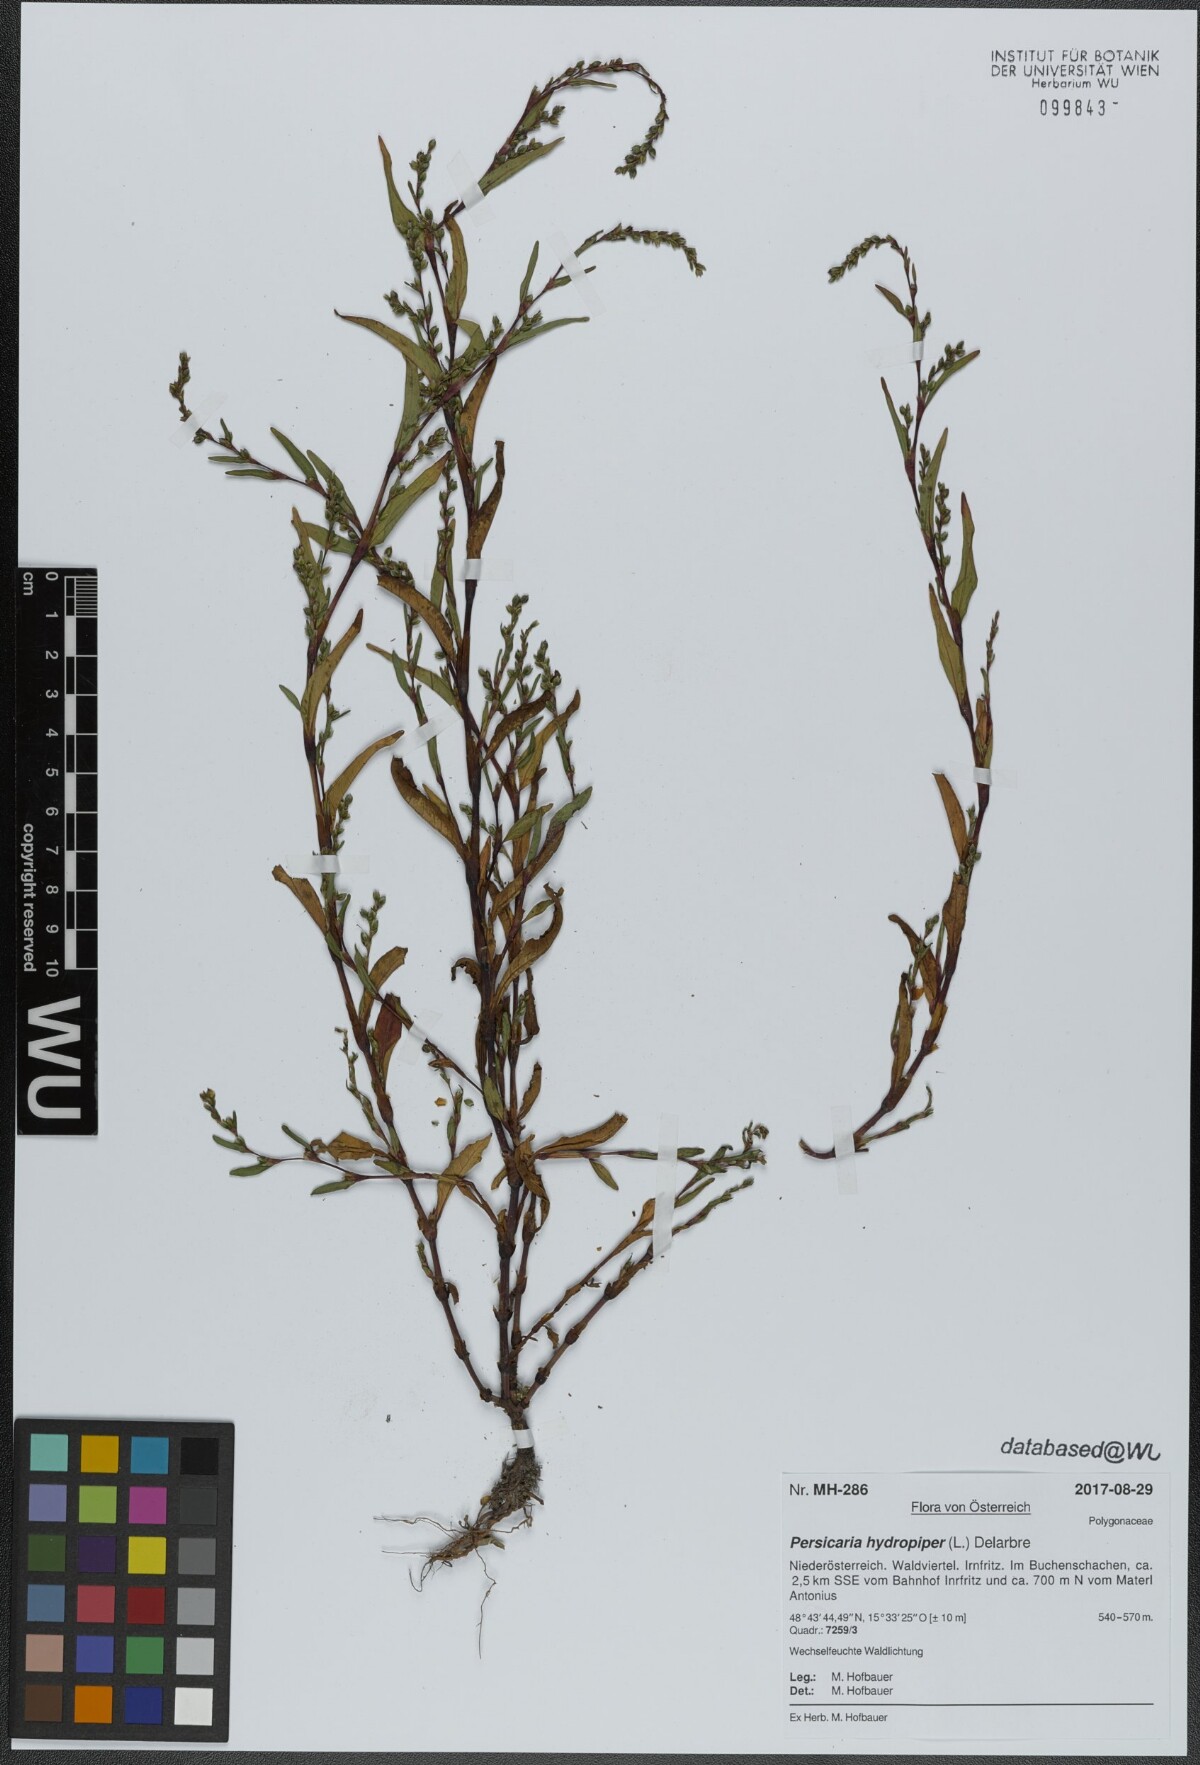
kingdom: Plantae
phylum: Tracheophyta
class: Magnoliopsida
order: Caryophyllales
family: Polygonaceae
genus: Persicaria
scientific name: Persicaria hydropiper
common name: Water-pepper
